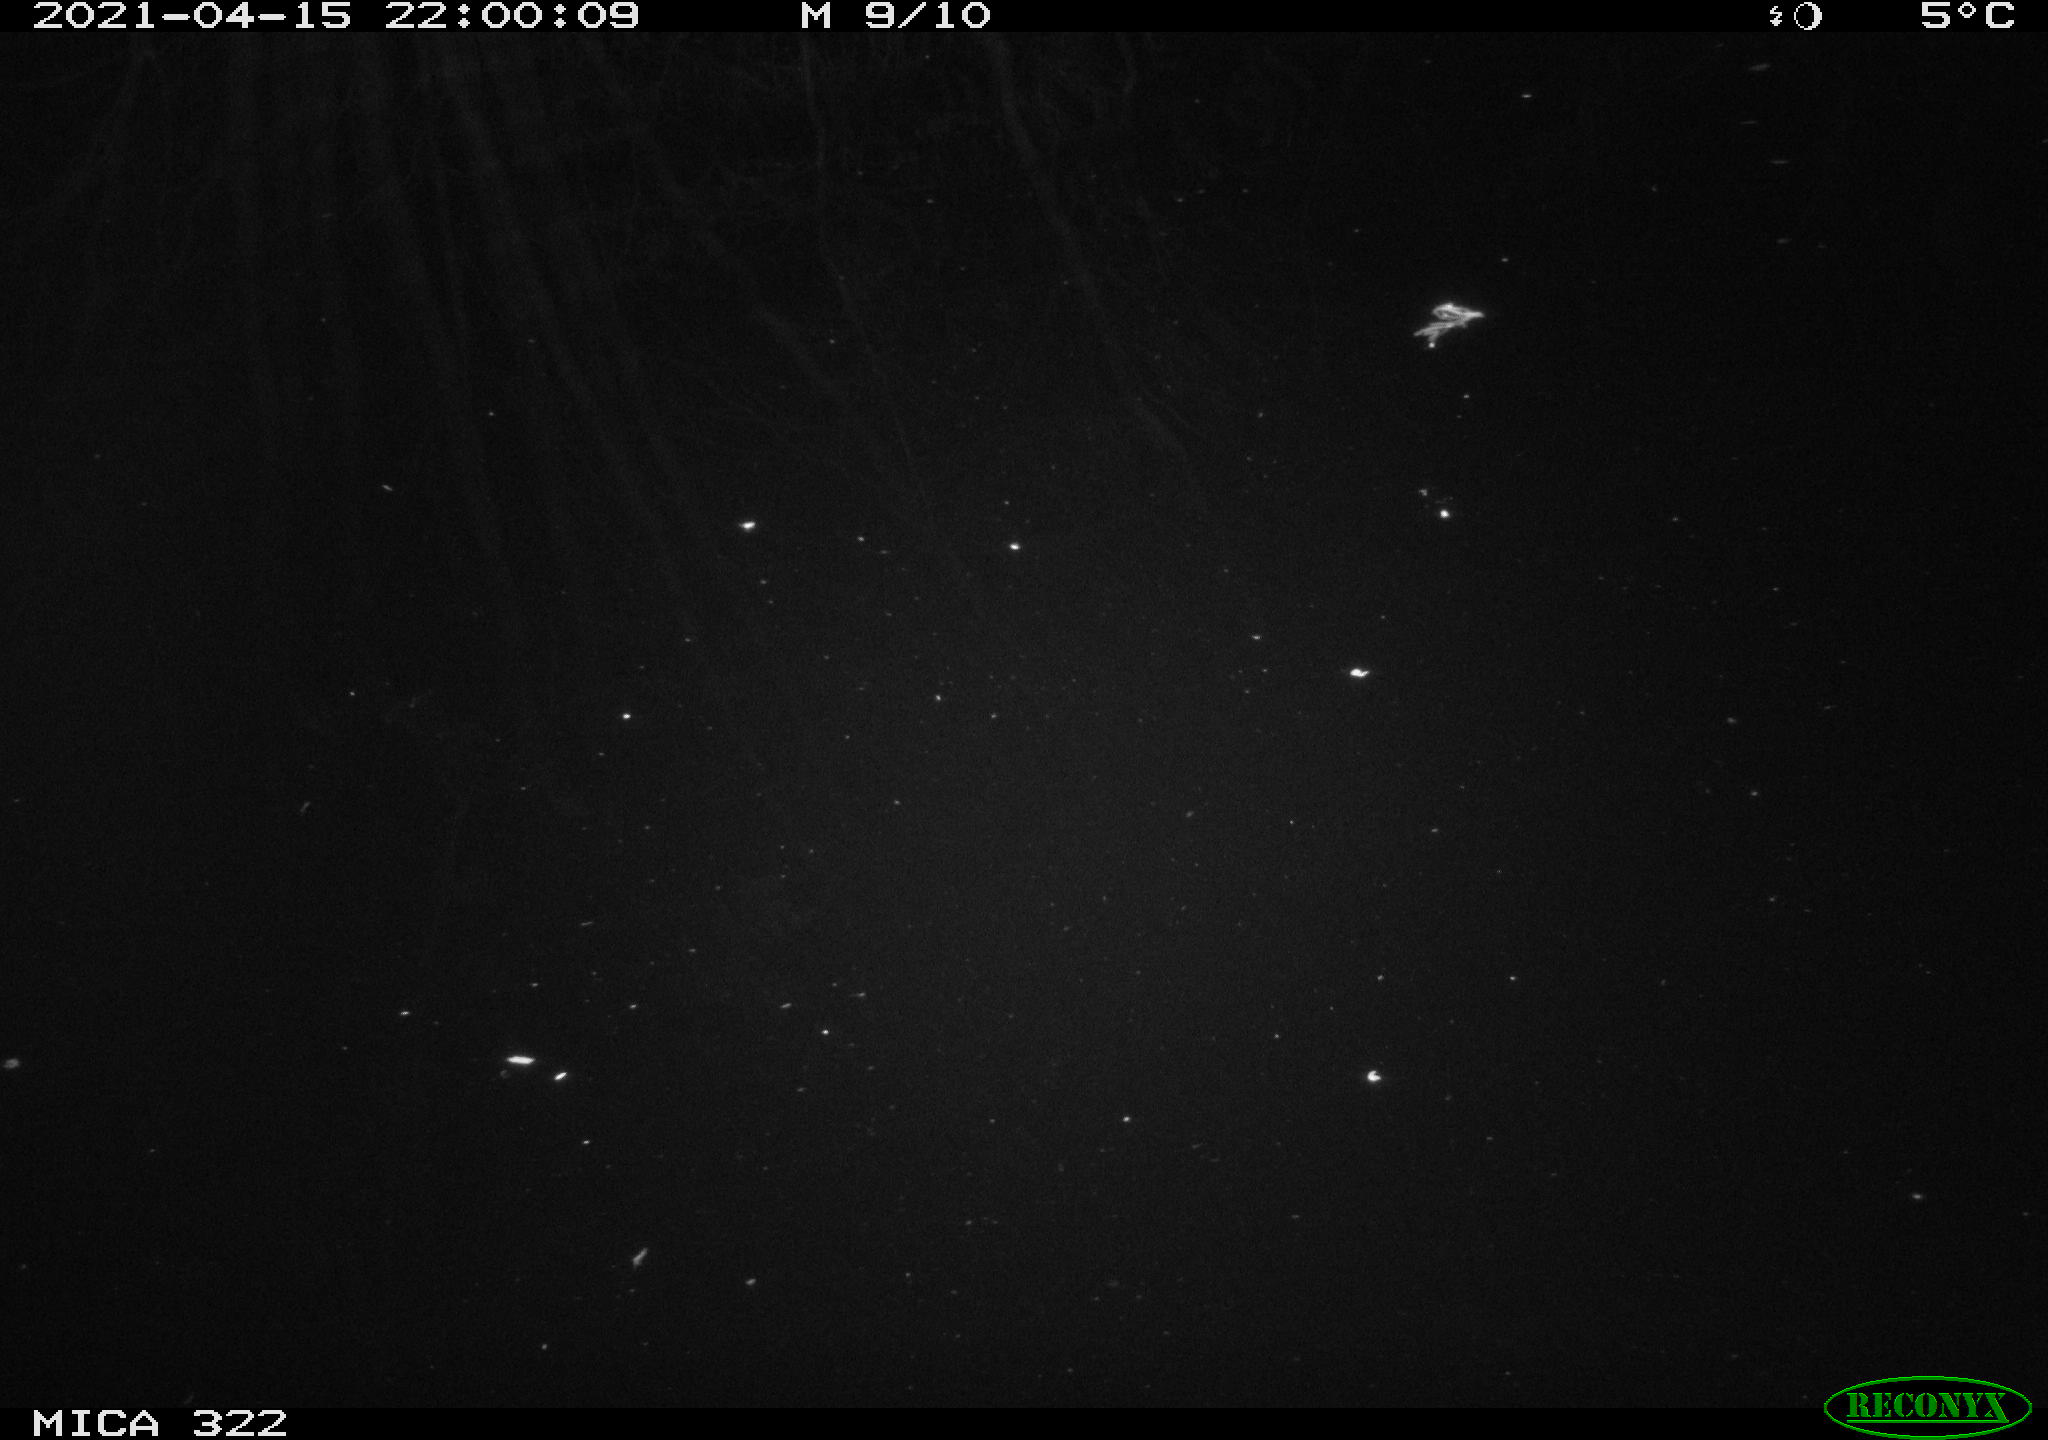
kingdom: Animalia
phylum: Chordata
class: Aves
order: Anseriformes
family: Anatidae
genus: Anas
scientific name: Anas platyrhynchos
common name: Mallard
